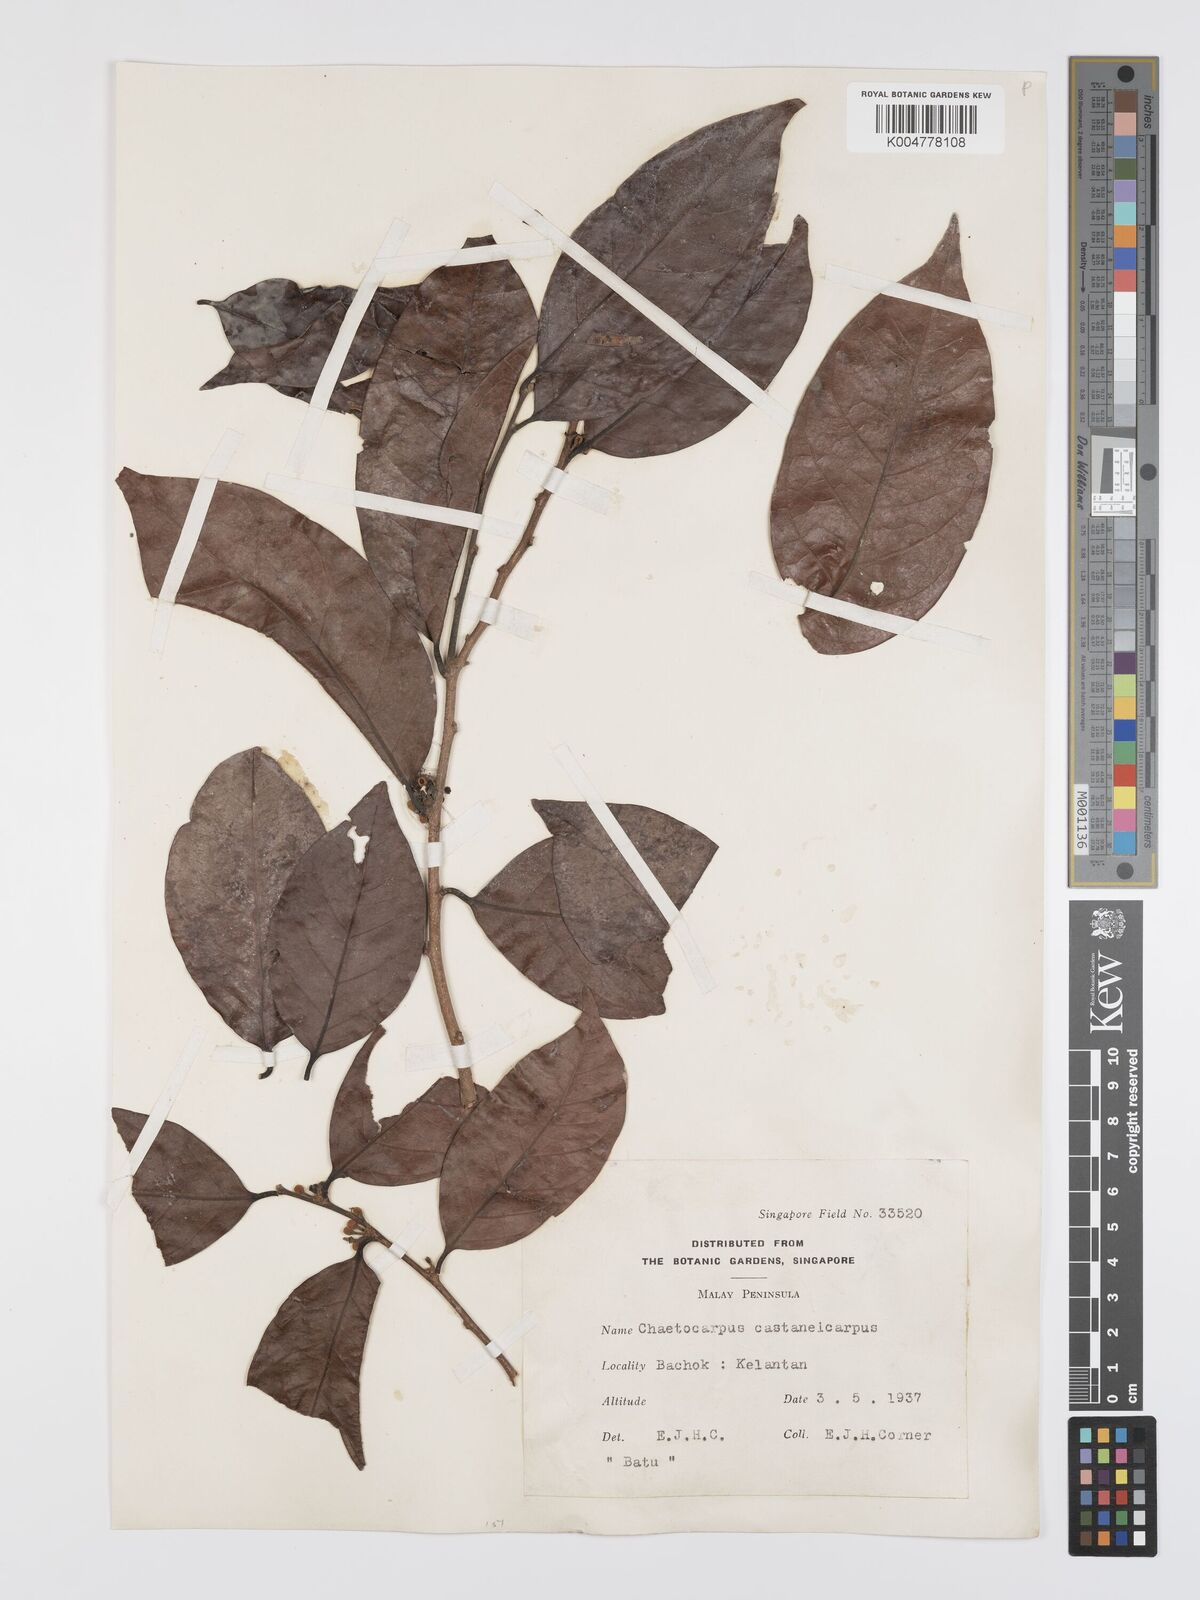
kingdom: Plantae
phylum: Tracheophyta
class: Magnoliopsida
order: Malpighiales
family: Peraceae
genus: Chaetocarpus
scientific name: Chaetocarpus castanocarpus
